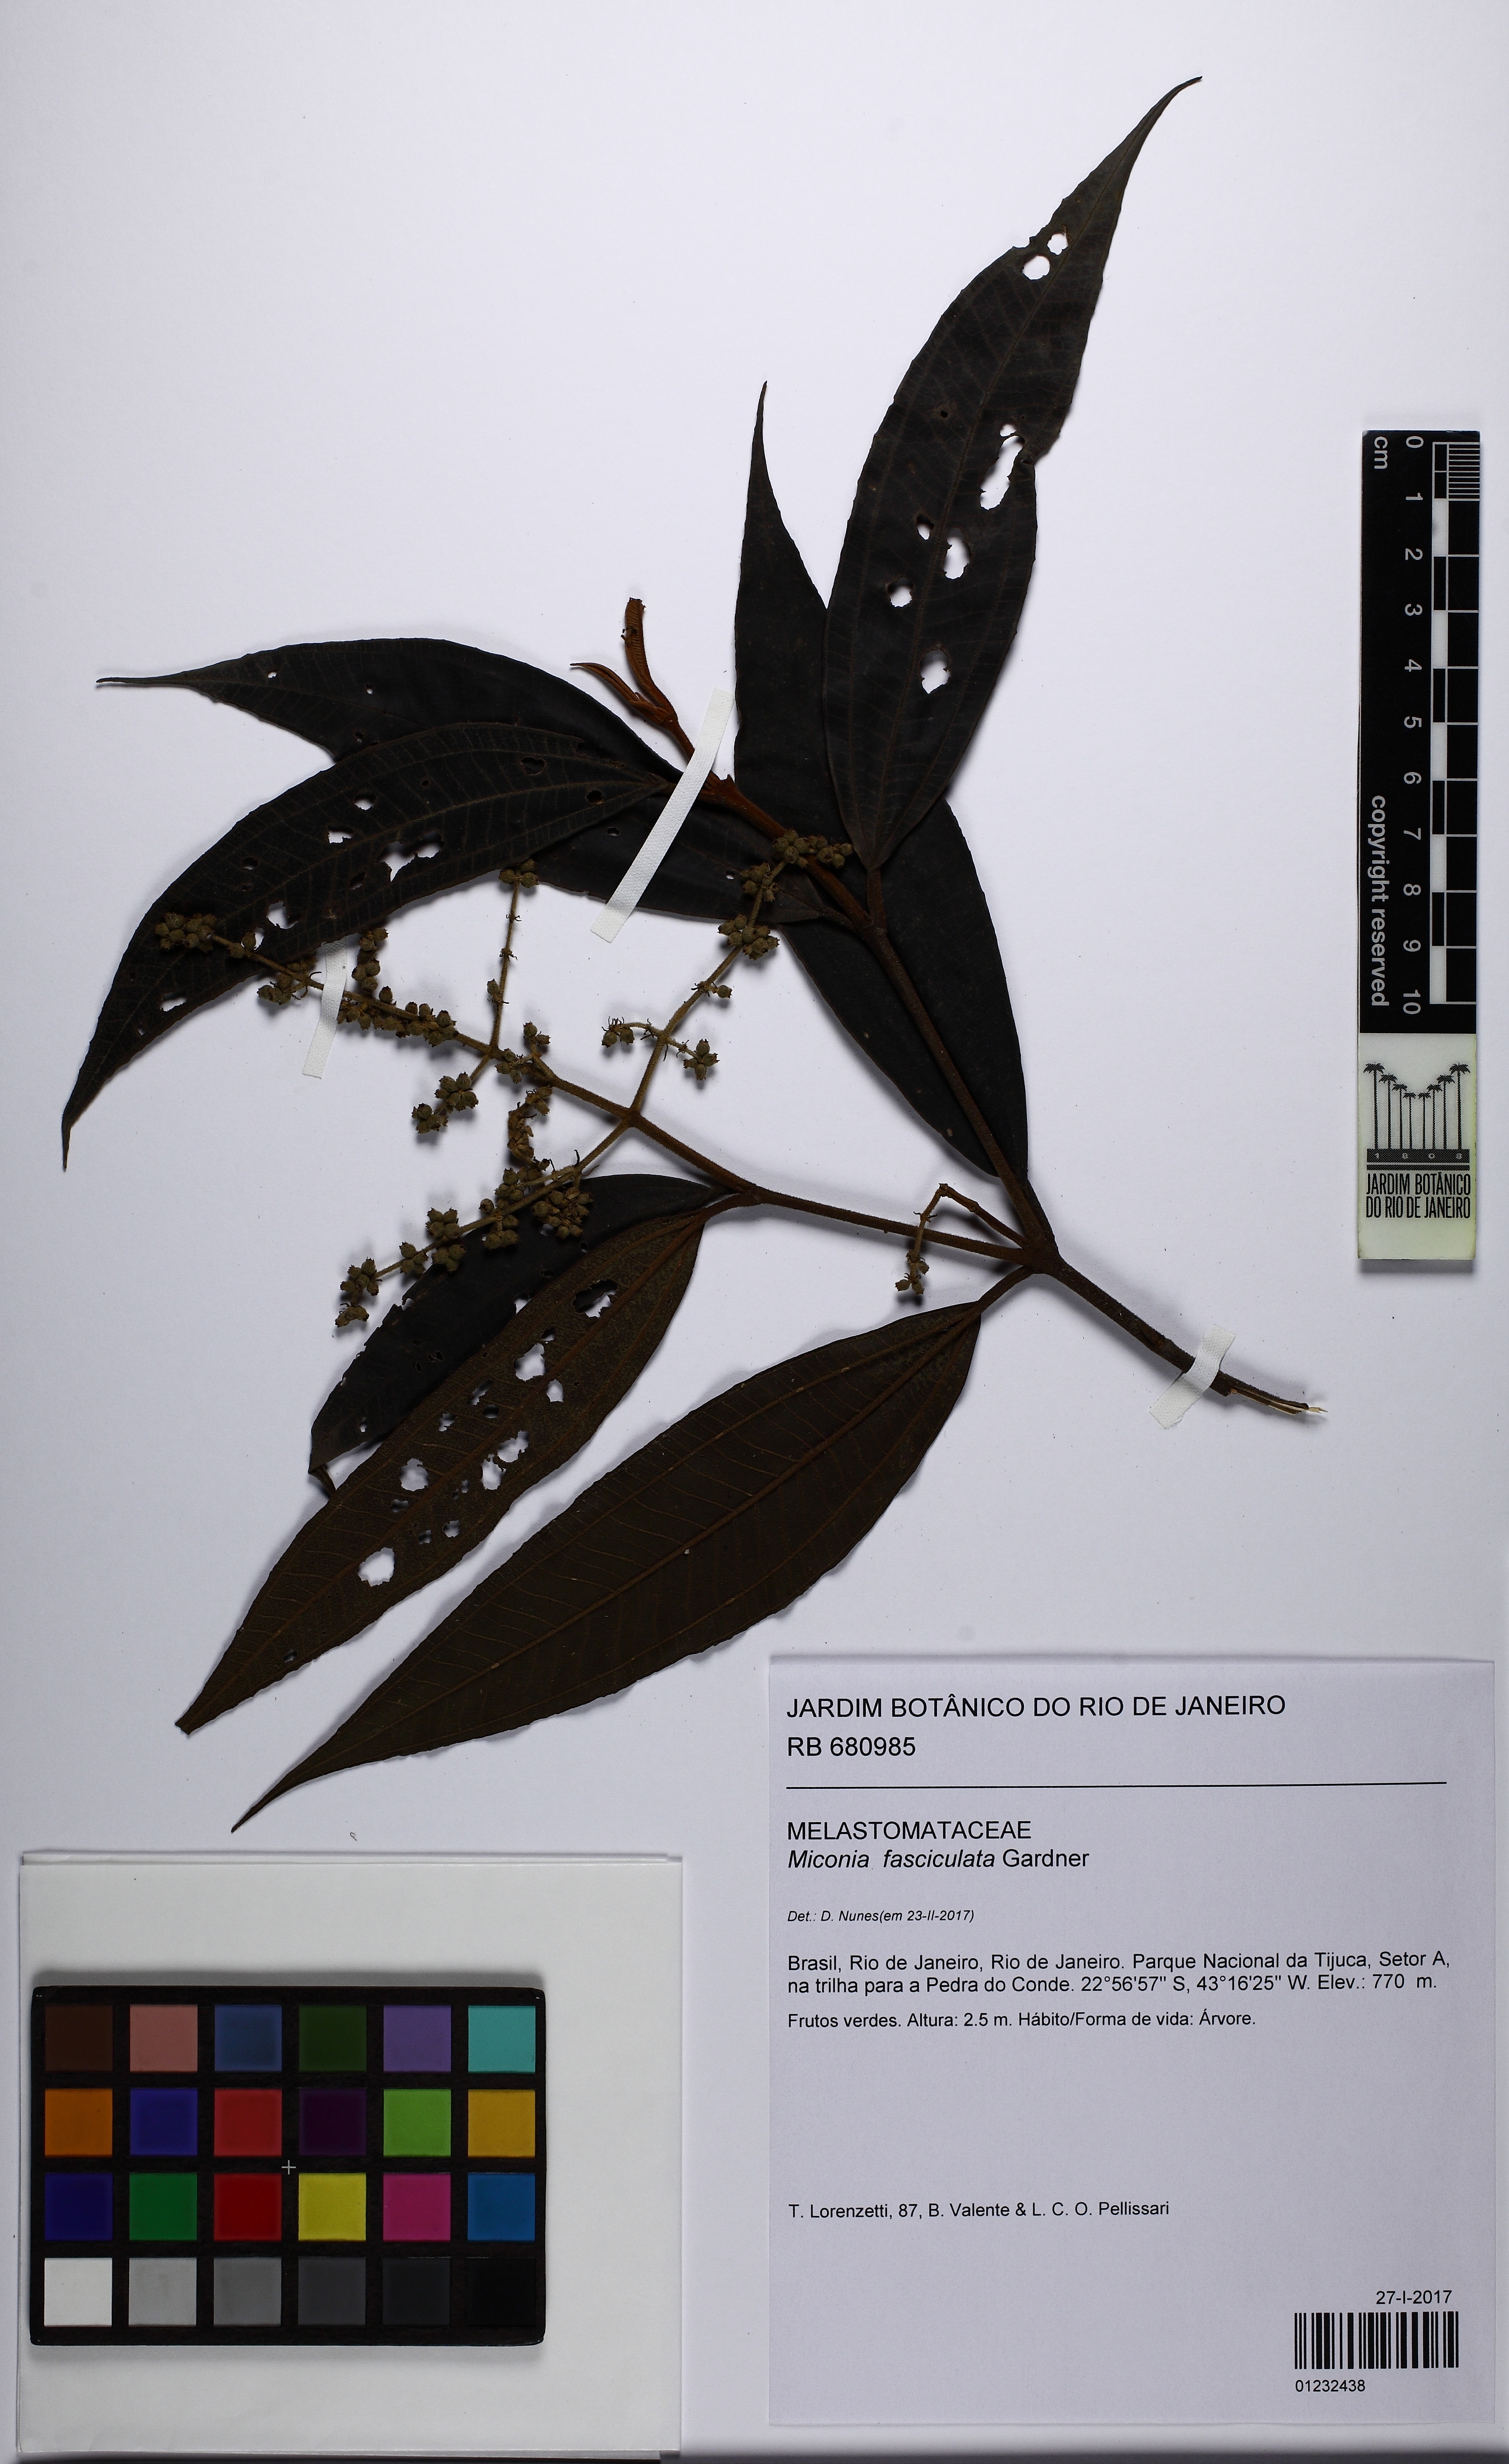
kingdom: Plantae
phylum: Tracheophyta
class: Magnoliopsida
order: Myrtales
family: Melastomataceae
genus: Miconia
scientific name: Miconia fasciculata
